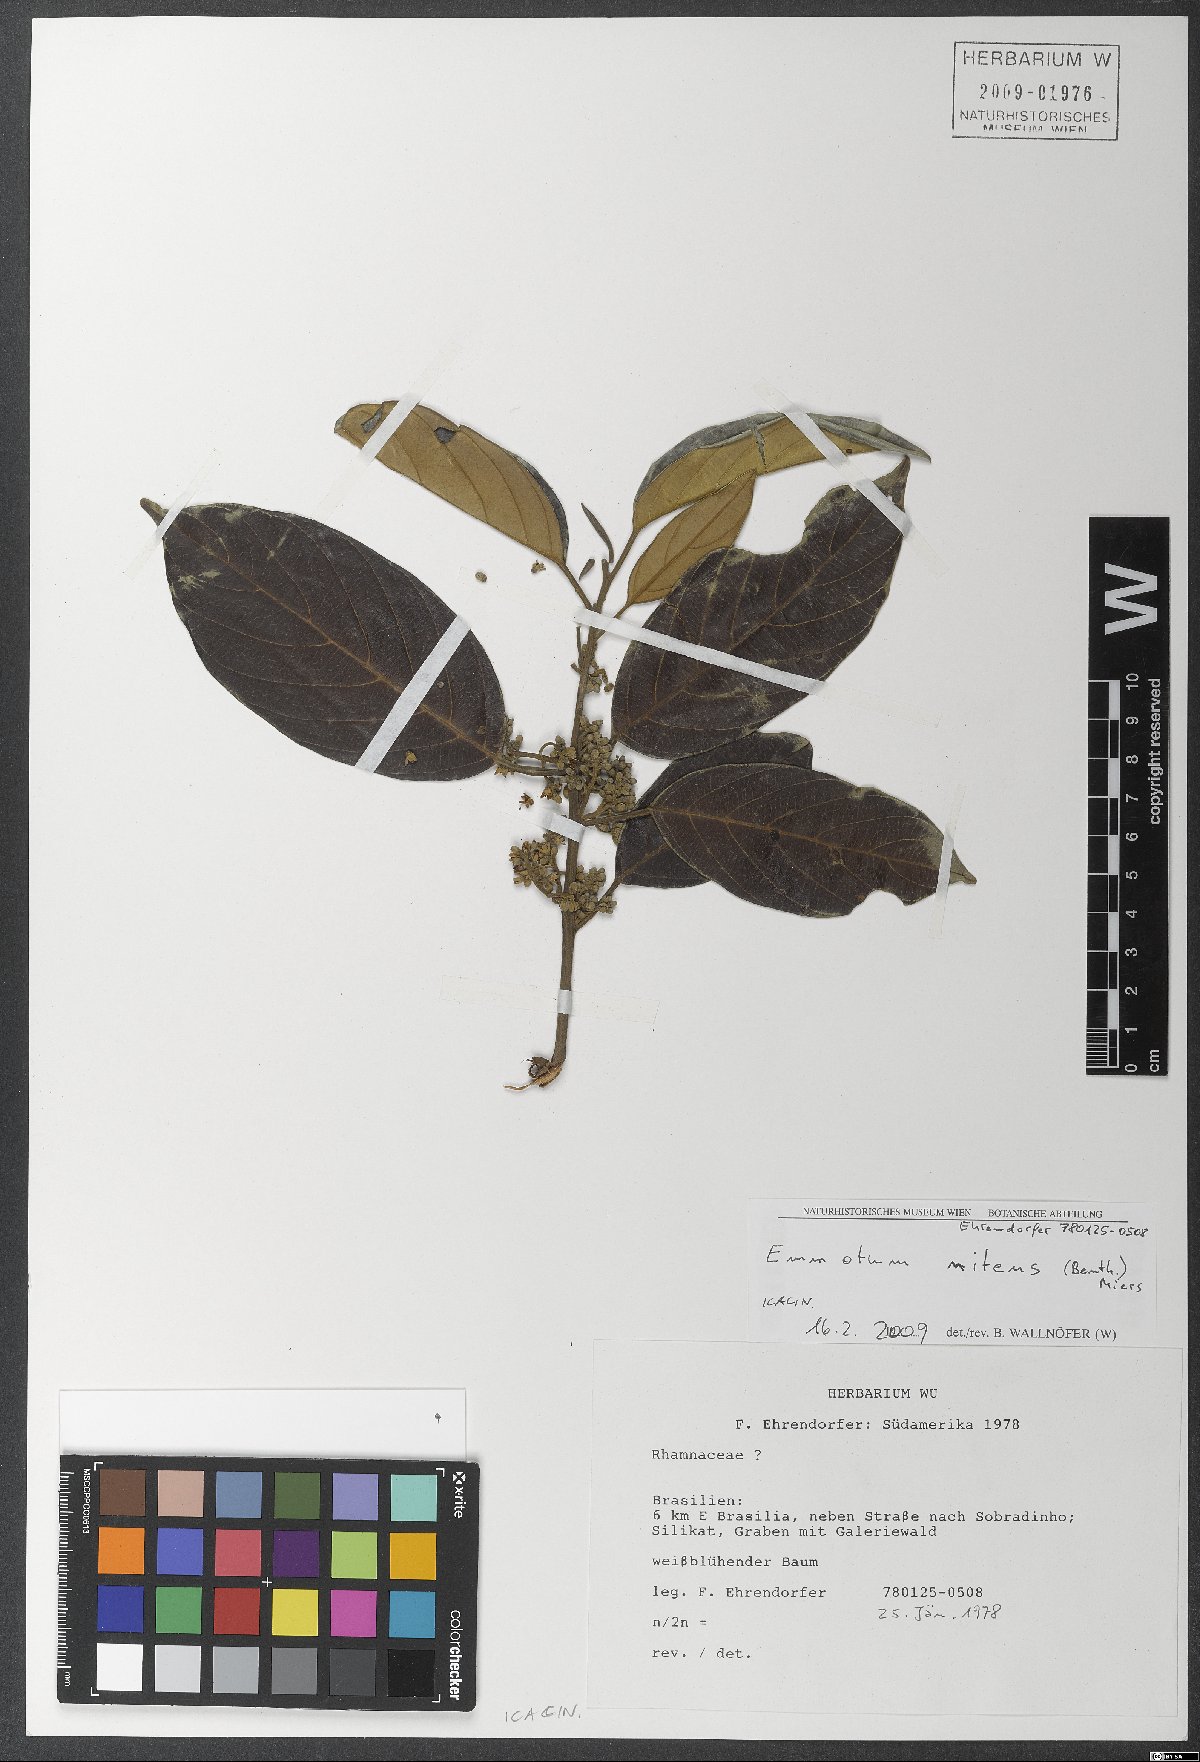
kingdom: Plantae
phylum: Tracheophyta
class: Magnoliopsida
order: Metteniusales
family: Metteniusaceae
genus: Emmotum
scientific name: Emmotum nitens
